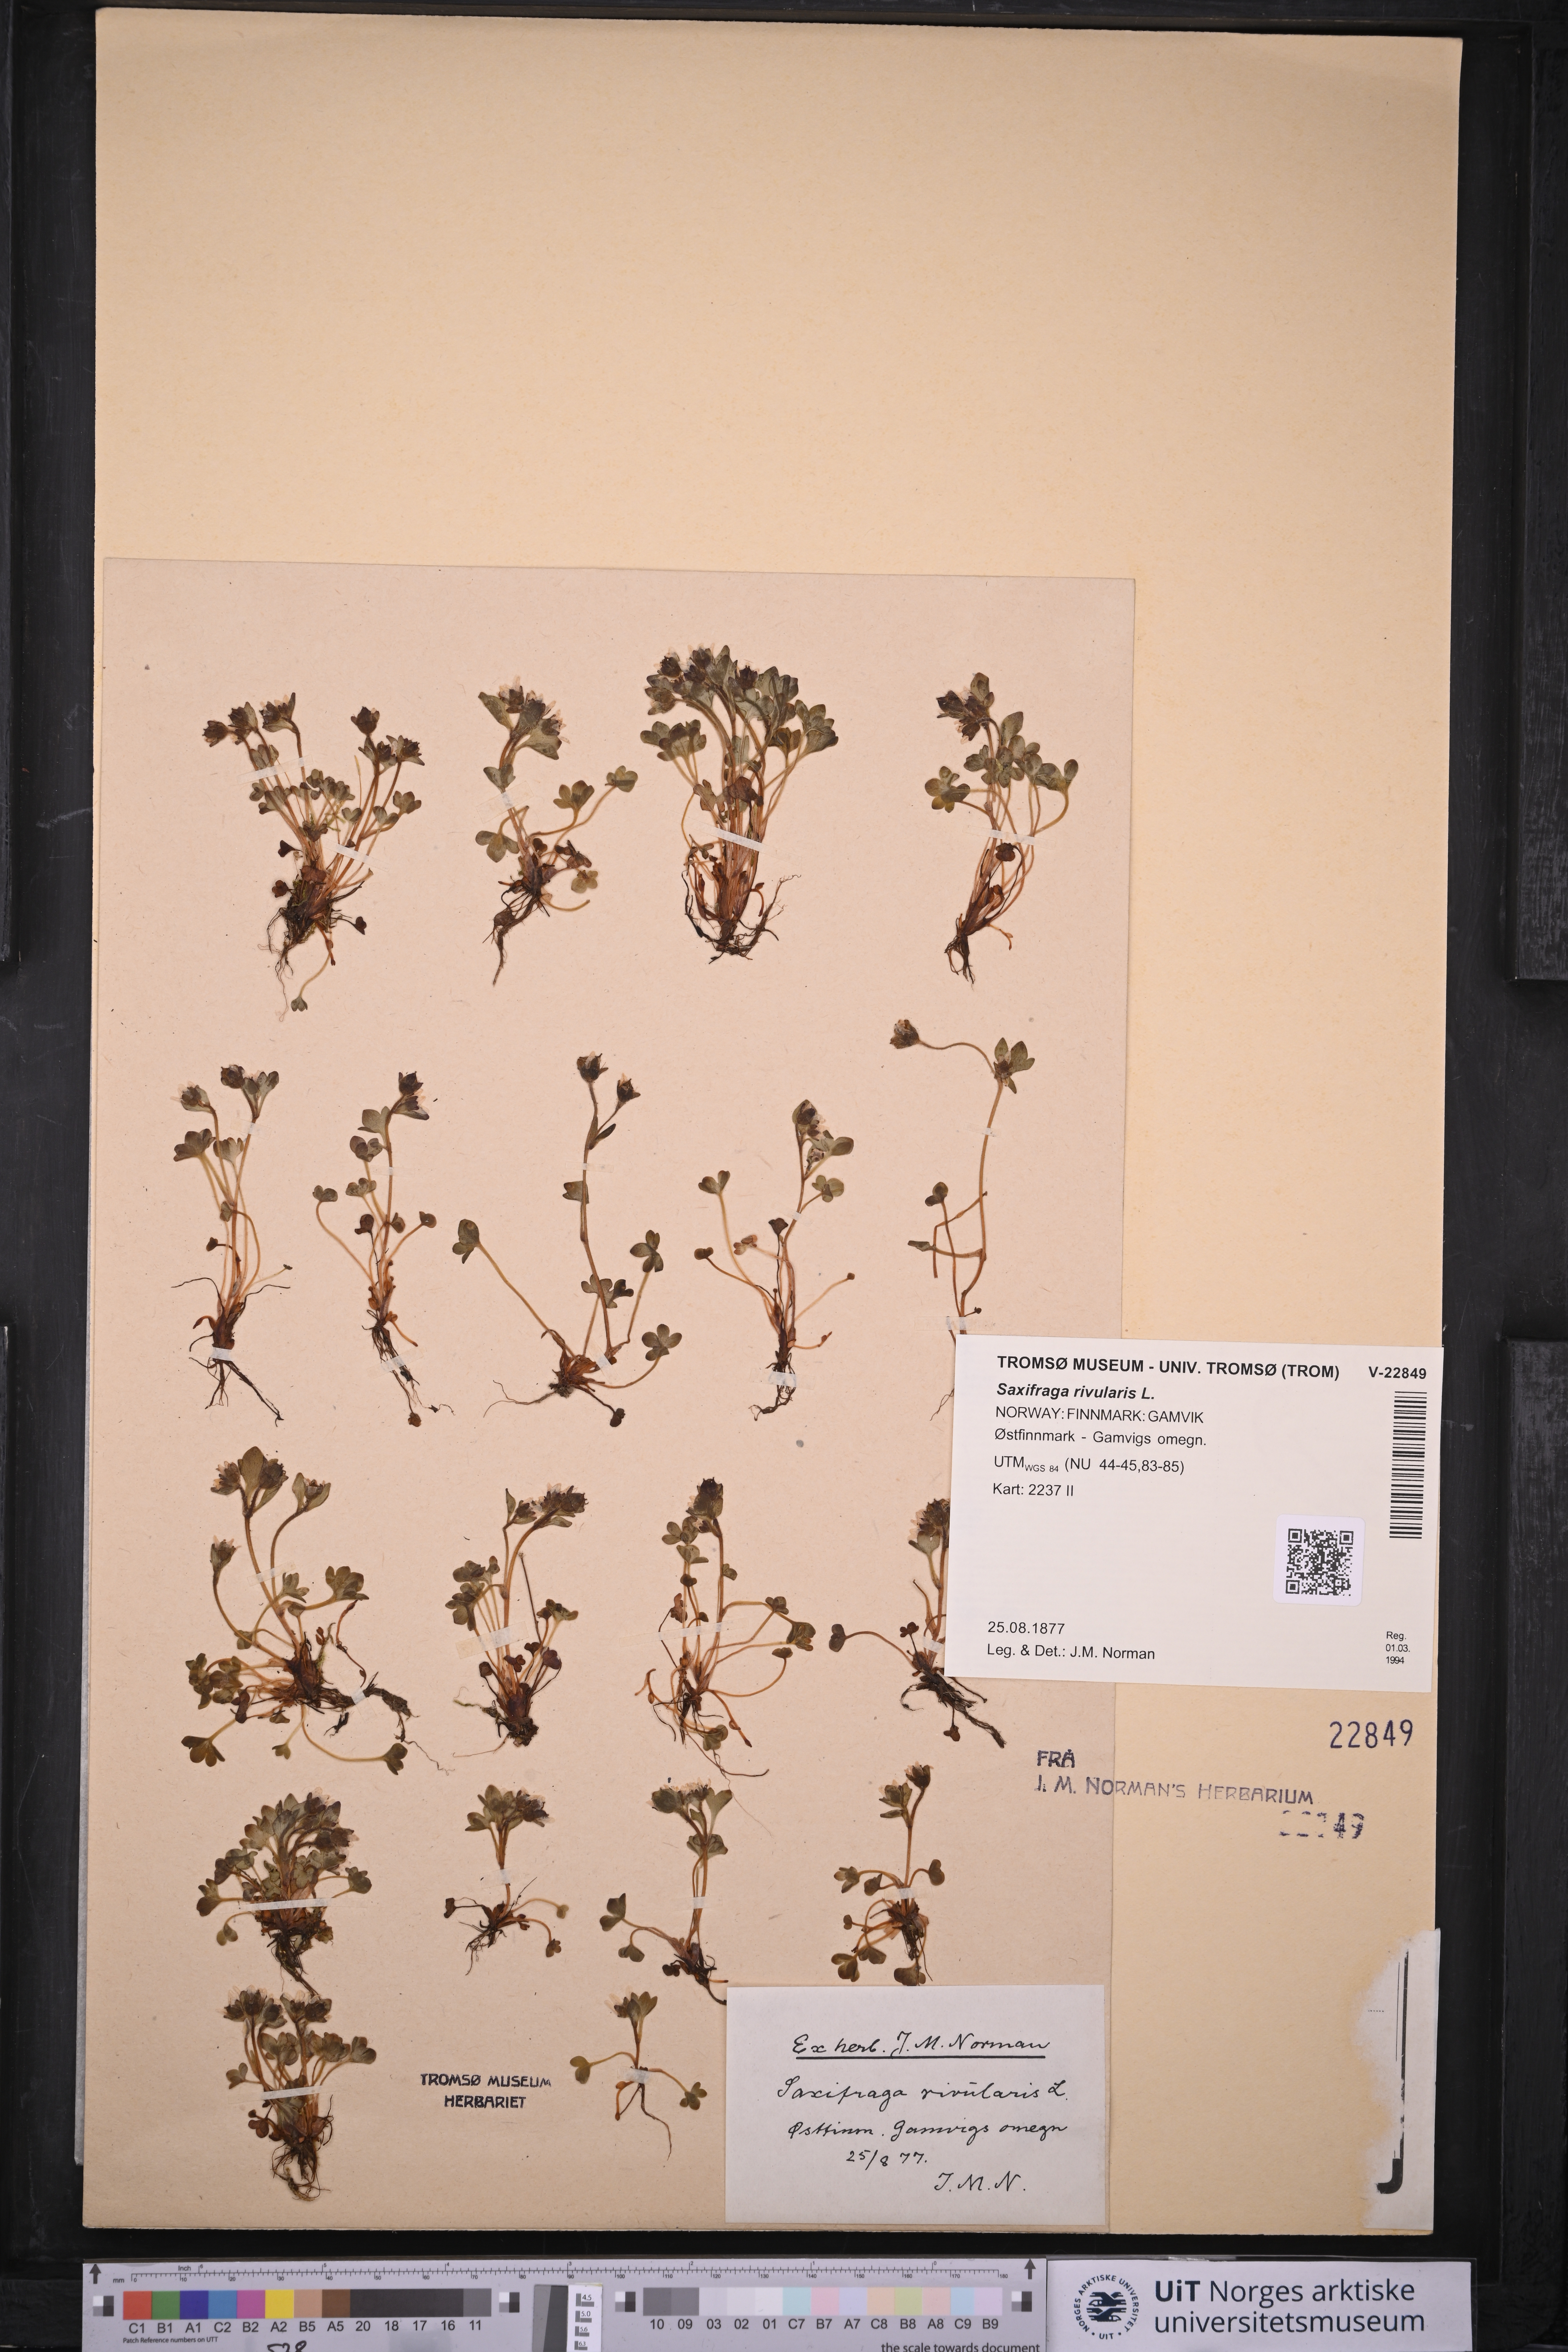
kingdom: Plantae
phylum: Tracheophyta
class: Magnoliopsida
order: Saxifragales
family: Saxifragaceae
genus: Saxifraga
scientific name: Saxifraga rivularis
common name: Highland saxifrage
